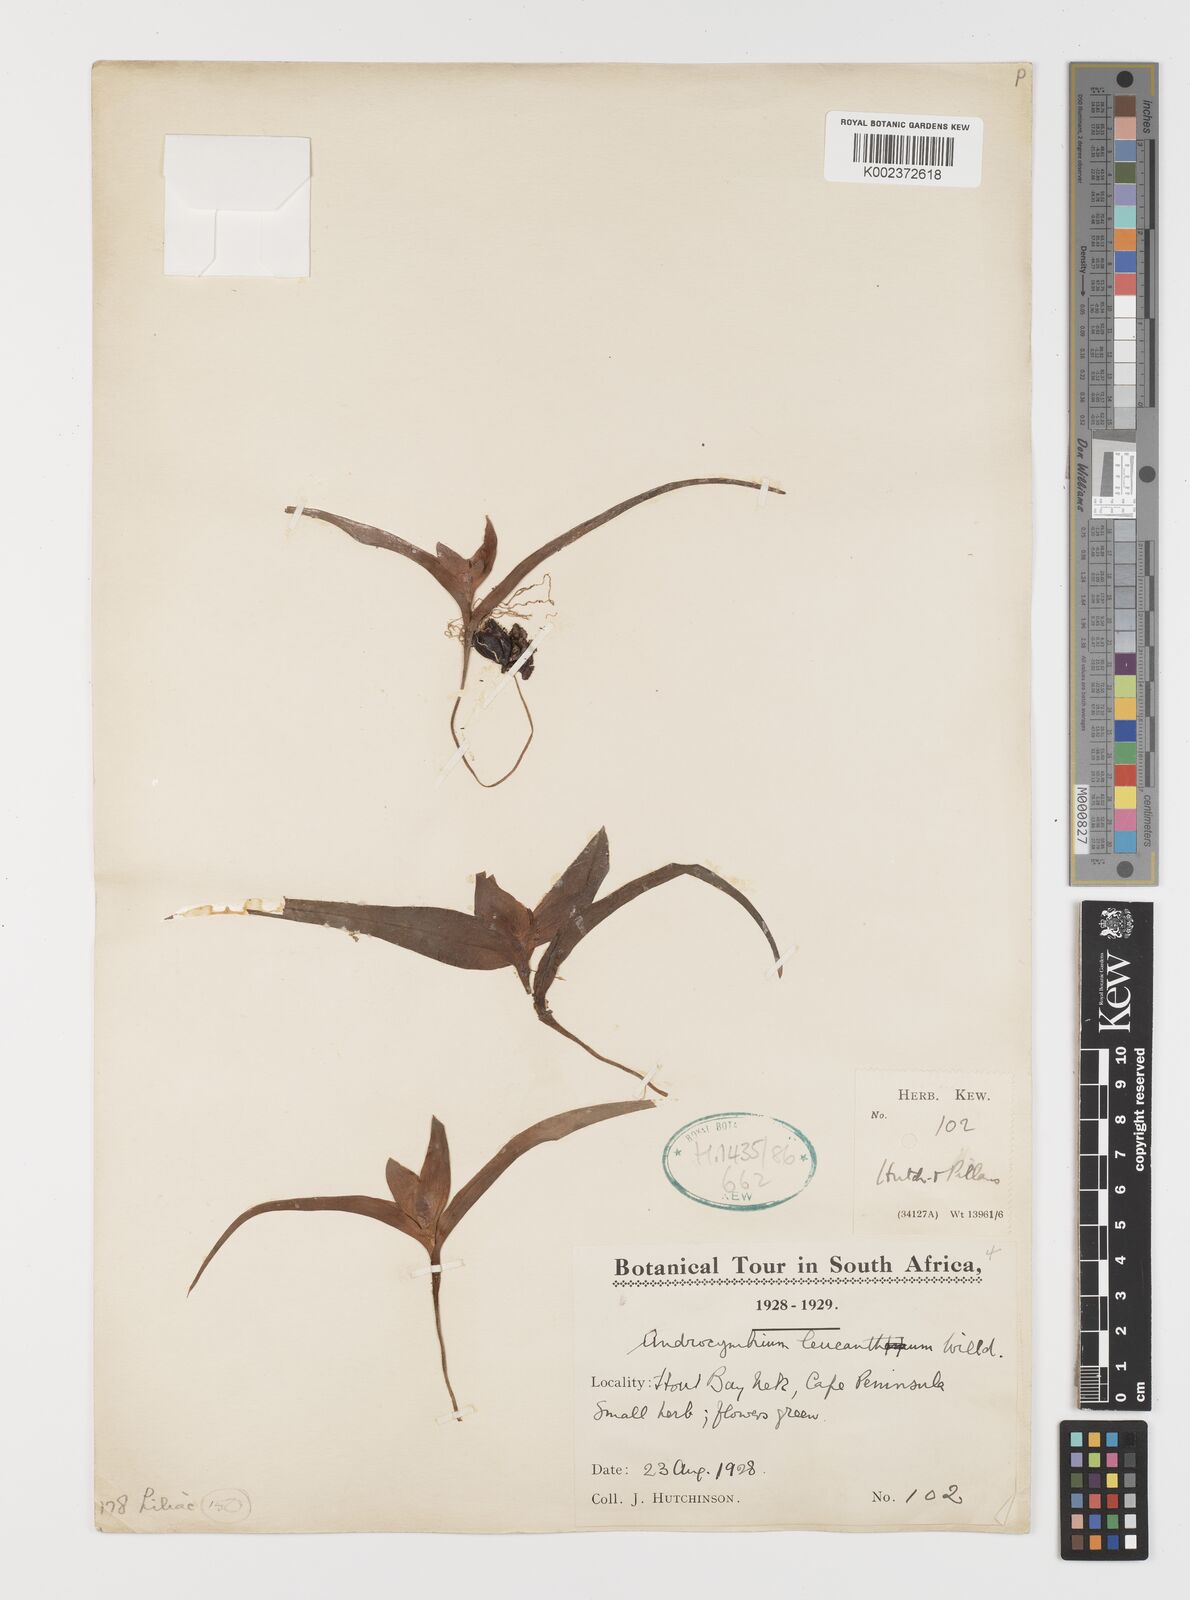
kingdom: Plantae
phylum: Tracheophyta
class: Liliopsida
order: Liliales
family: Colchicaceae
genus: Colchicum
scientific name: Colchicum capense
